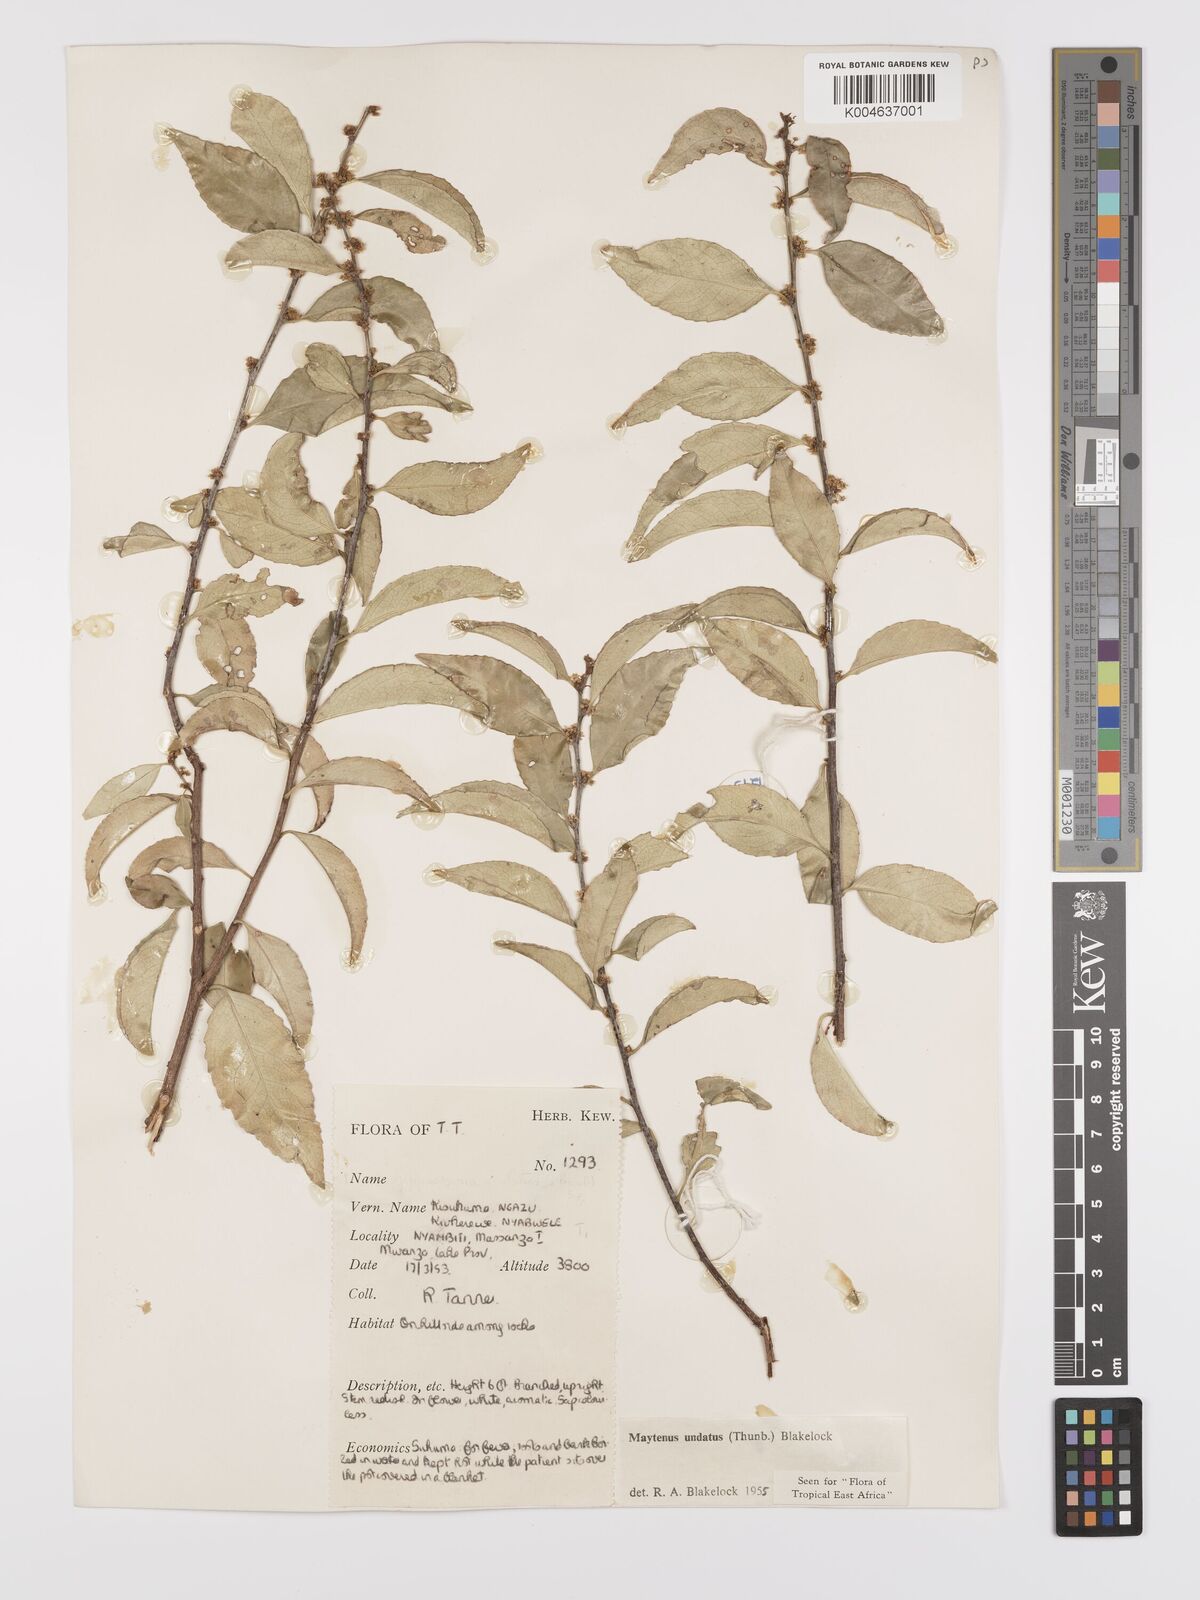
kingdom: Plantae
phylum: Tracheophyta
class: Magnoliopsida
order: Celastrales
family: Celastraceae
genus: Gymnosporia
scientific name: Gymnosporia undata
